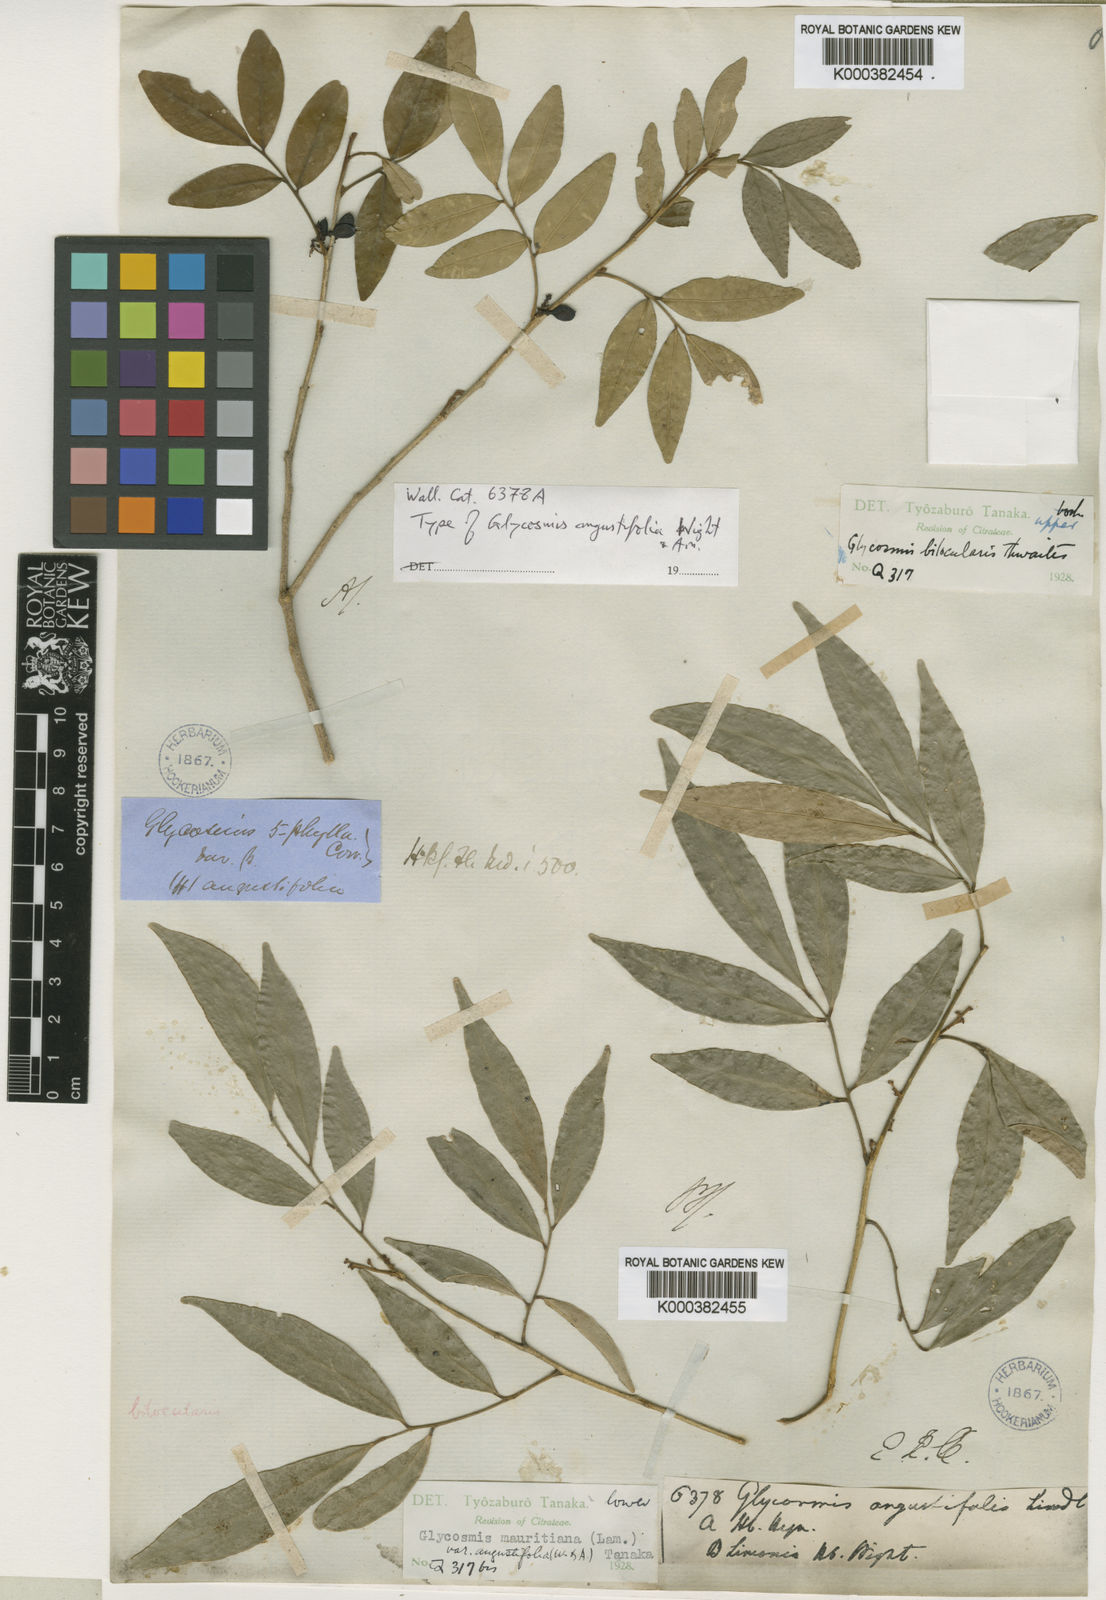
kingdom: Plantae
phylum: Tracheophyta
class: Magnoliopsida
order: Sapindales
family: Rutaceae
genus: Glycosmis
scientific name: Glycosmis angustifolia
